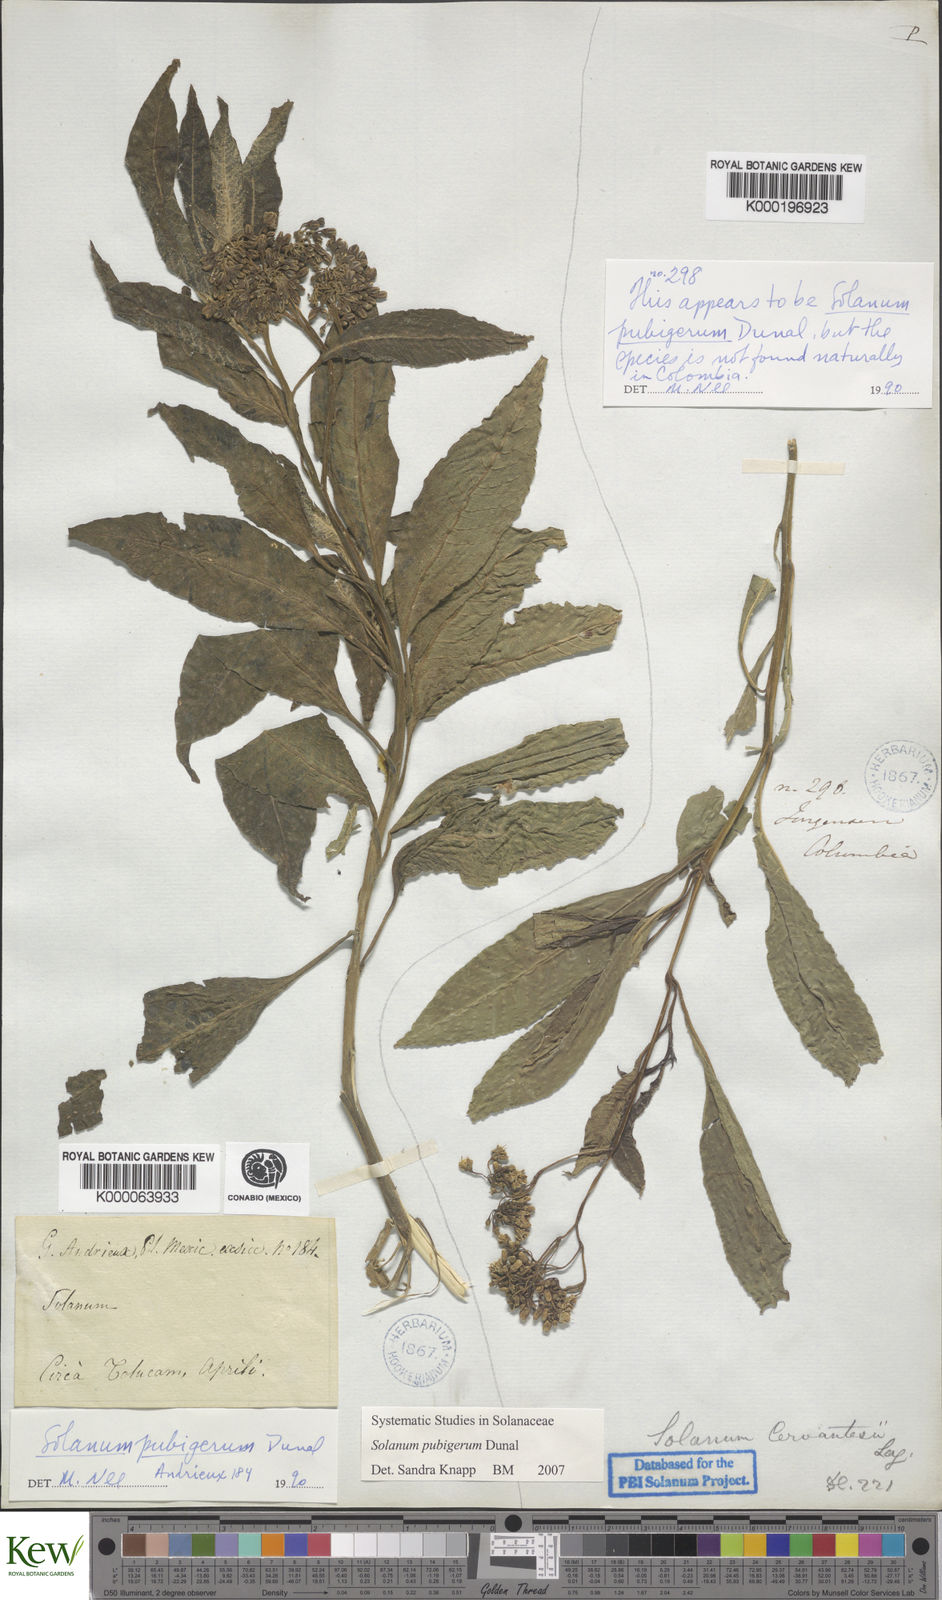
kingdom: Plantae
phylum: Tracheophyta
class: Magnoliopsida
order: Solanales
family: Solanaceae
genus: Solanum
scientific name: Solanum pubigerum
